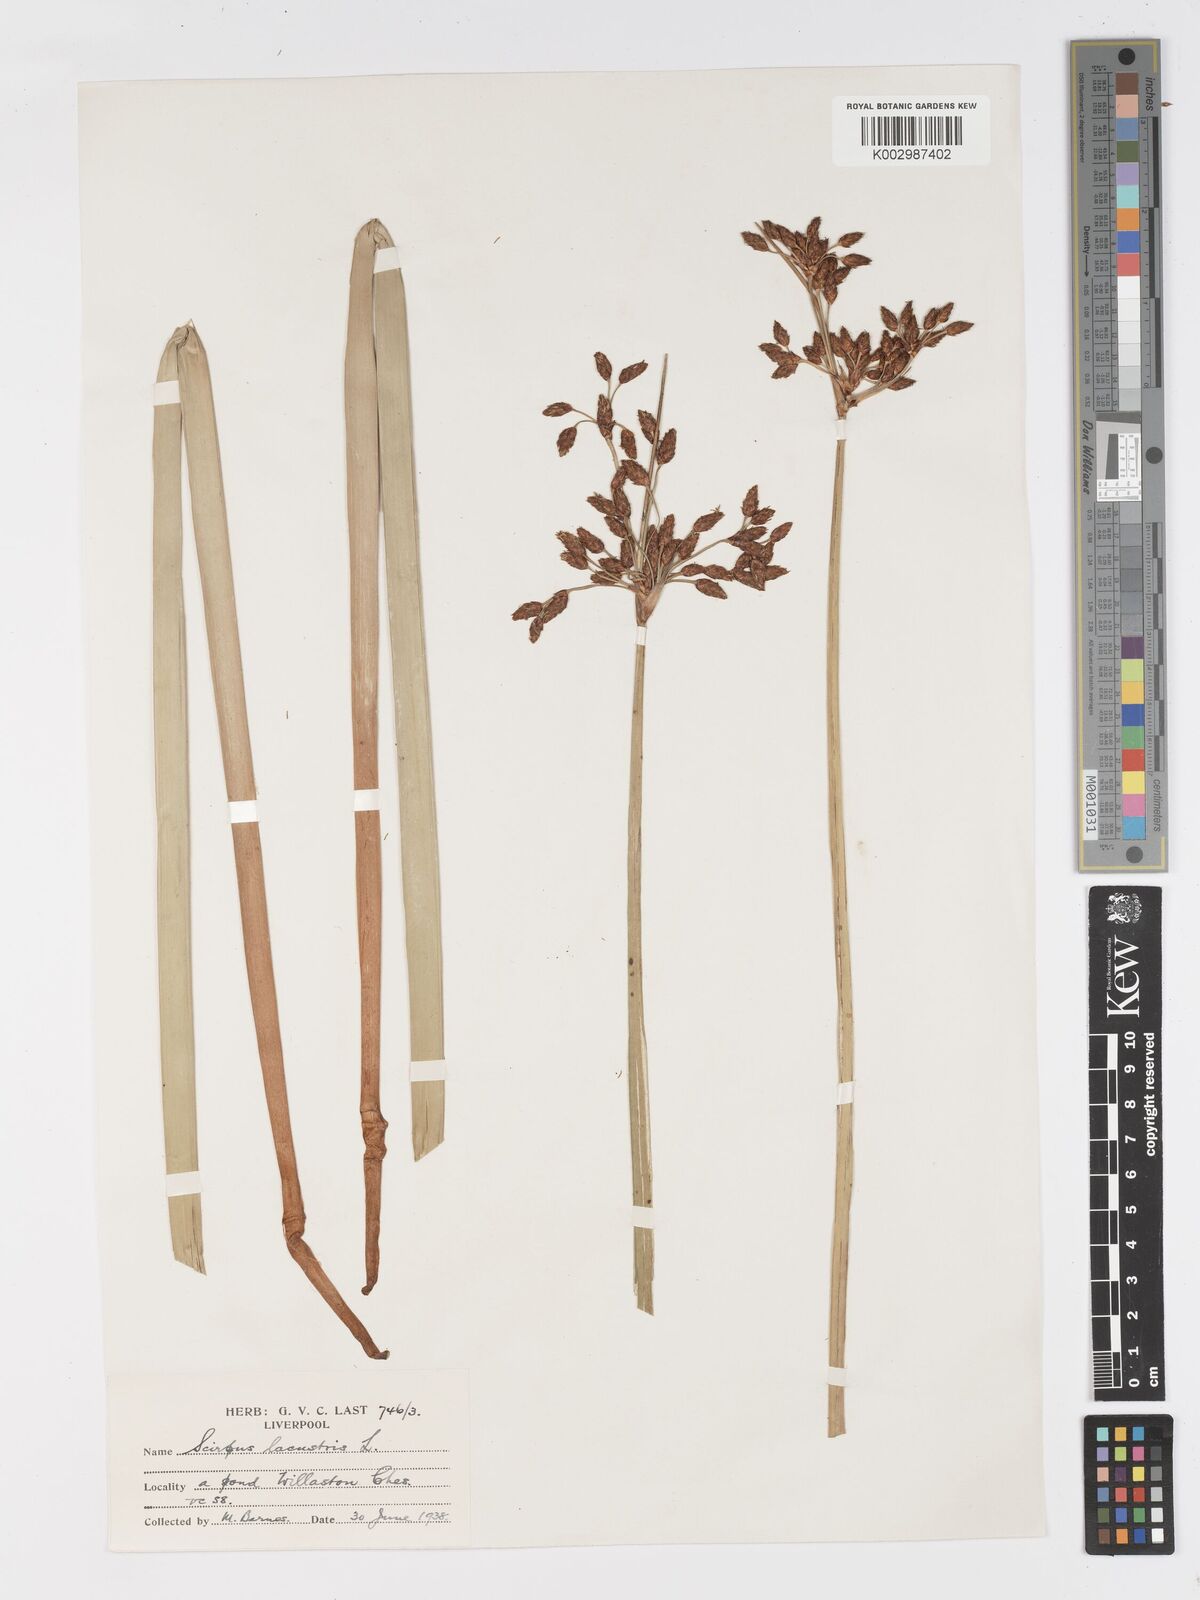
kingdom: Plantae
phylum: Tracheophyta
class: Liliopsida
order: Poales
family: Cyperaceae
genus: Schoenoplectus
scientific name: Schoenoplectus lacustris
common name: Common club-rush
